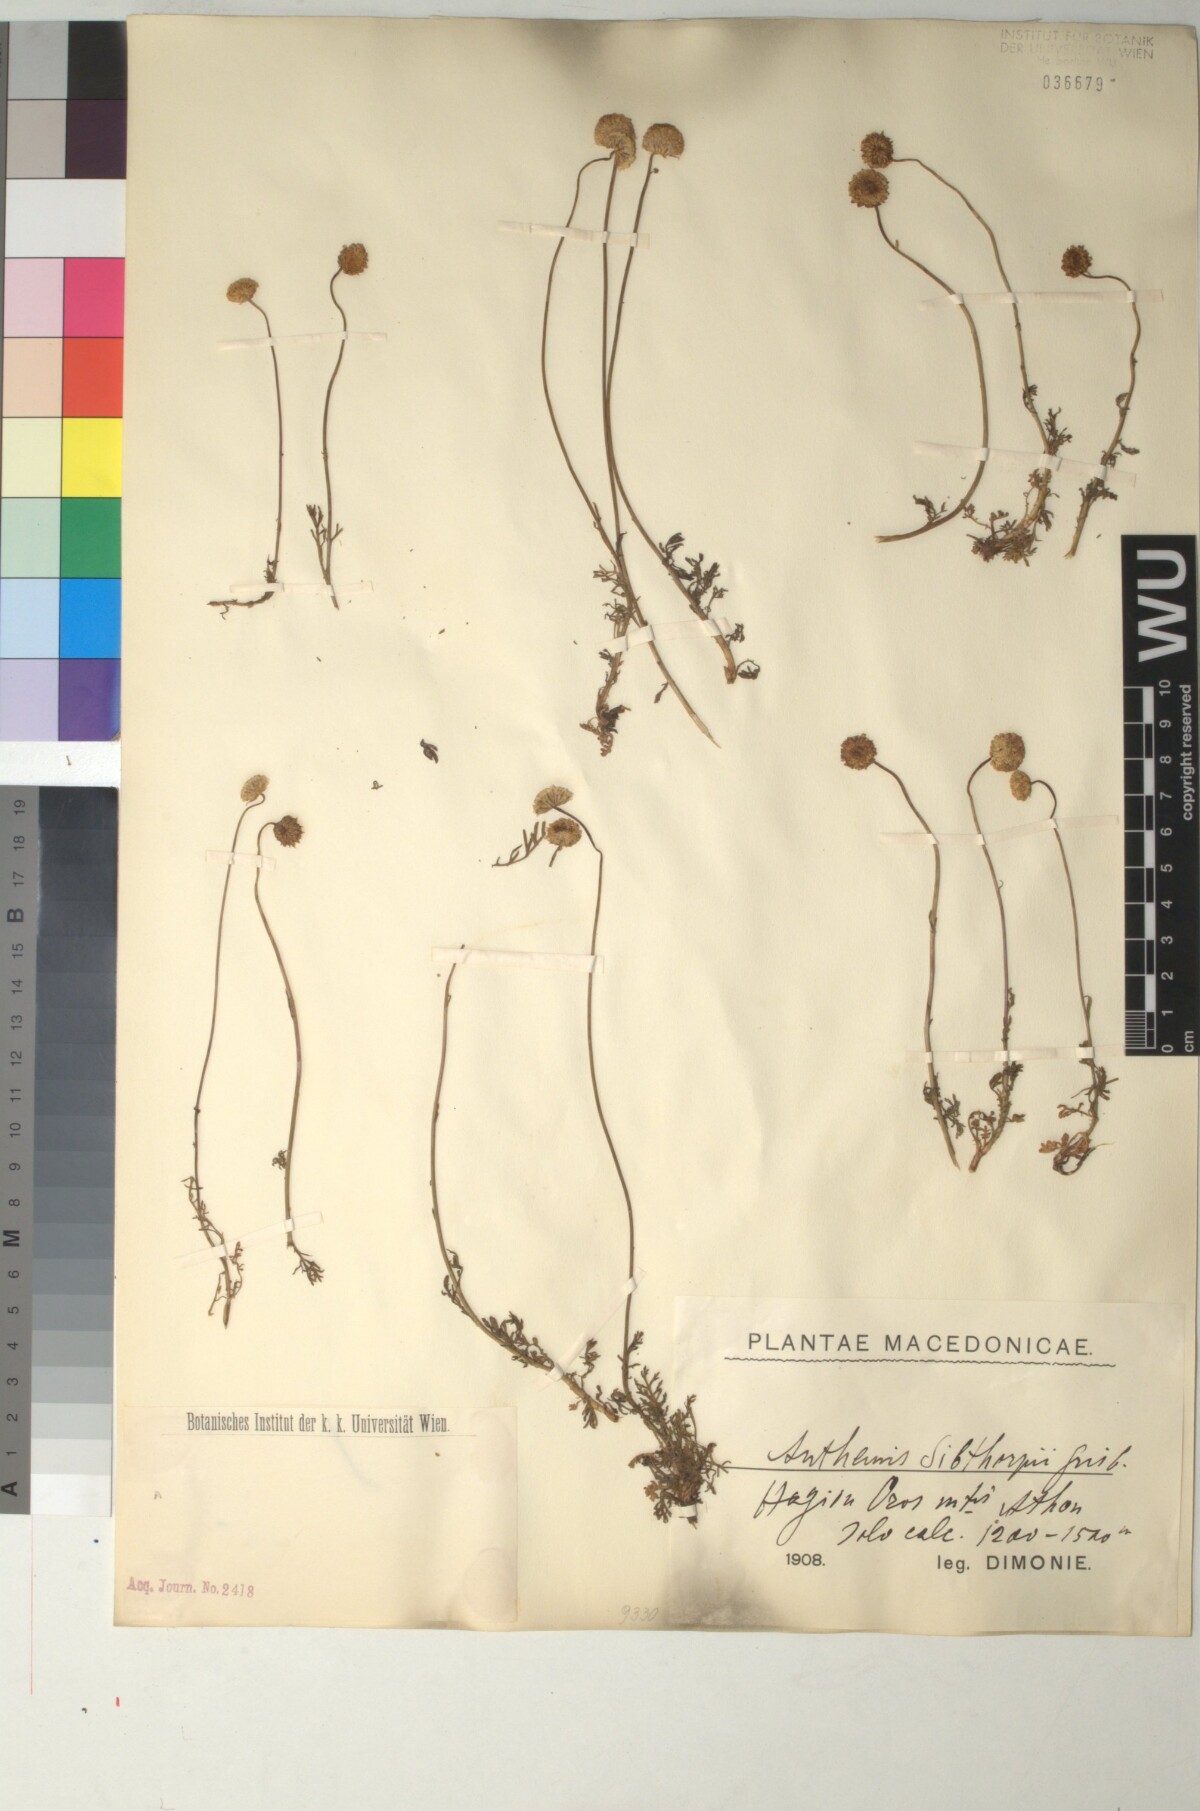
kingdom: Plantae
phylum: Tracheophyta
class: Magnoliopsida
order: Asterales
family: Asteraceae
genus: Anthemis
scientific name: Anthemis sibthorpii
